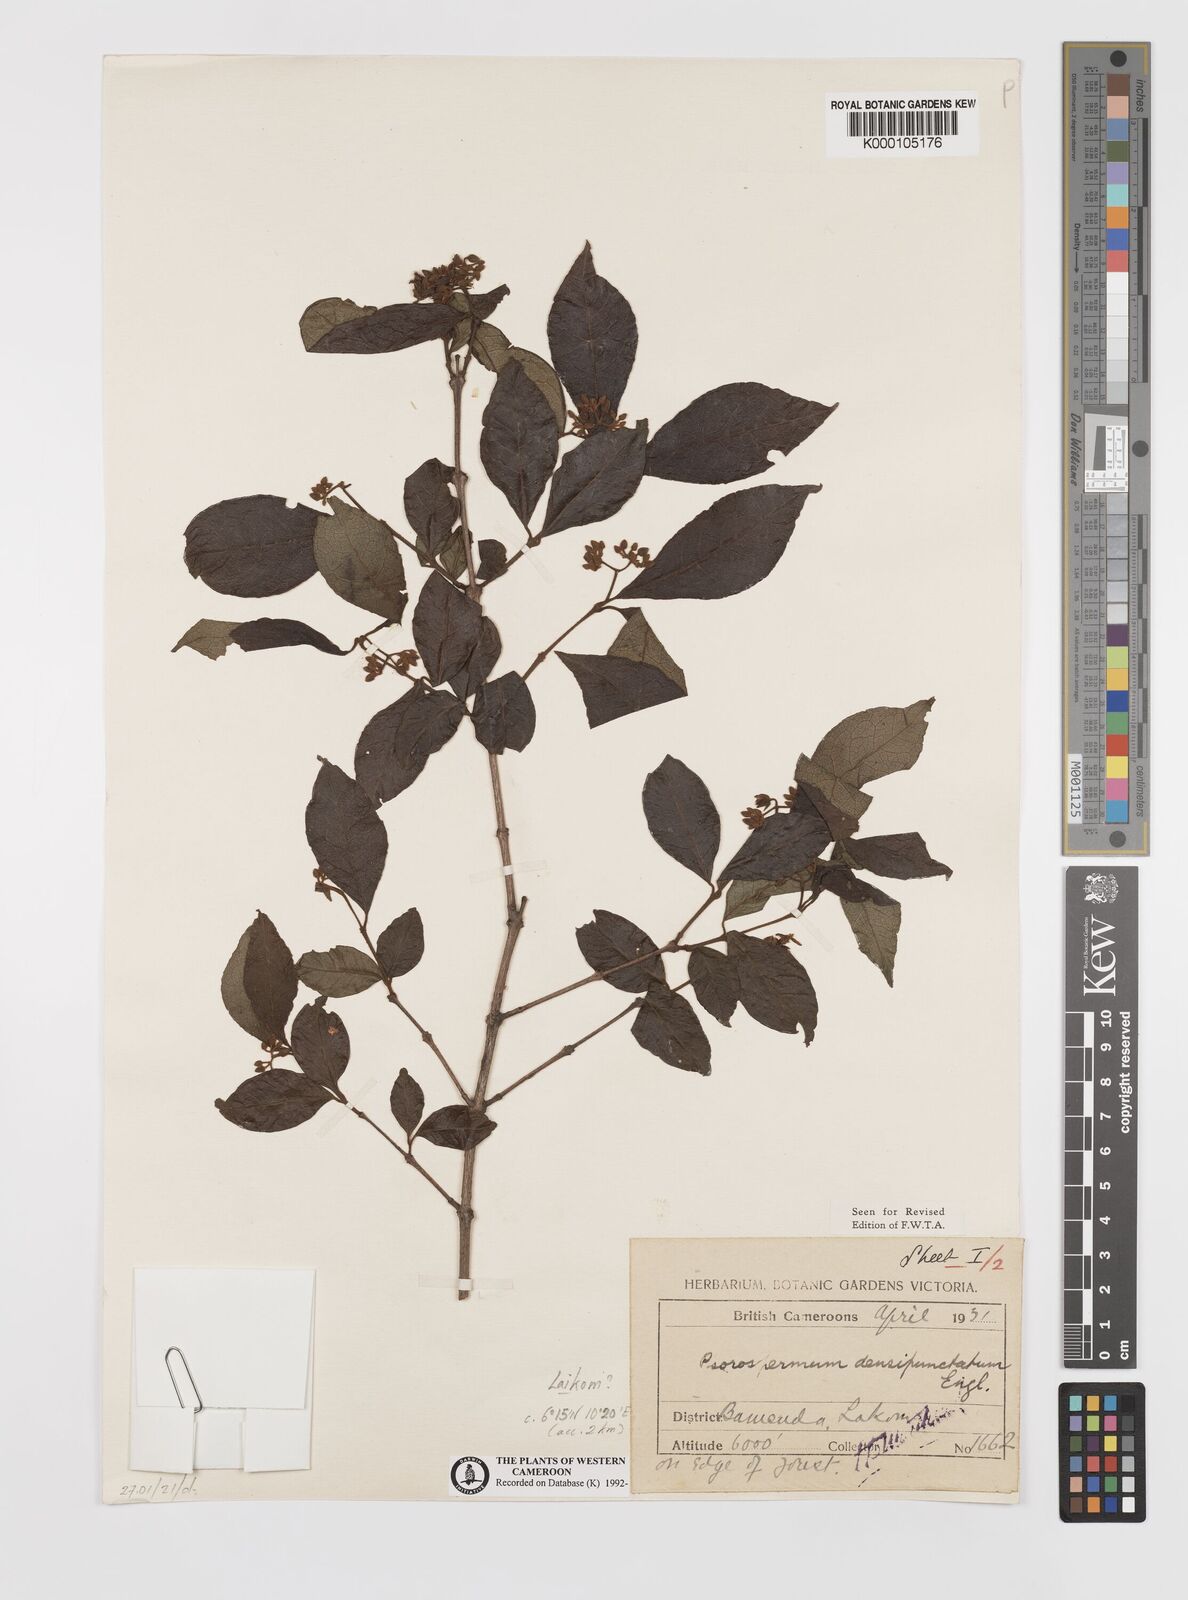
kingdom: Plantae
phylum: Tracheophyta
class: Magnoliopsida
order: Malpighiales
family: Hypericaceae
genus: Psorospermum
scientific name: Psorospermum densipunctatum
